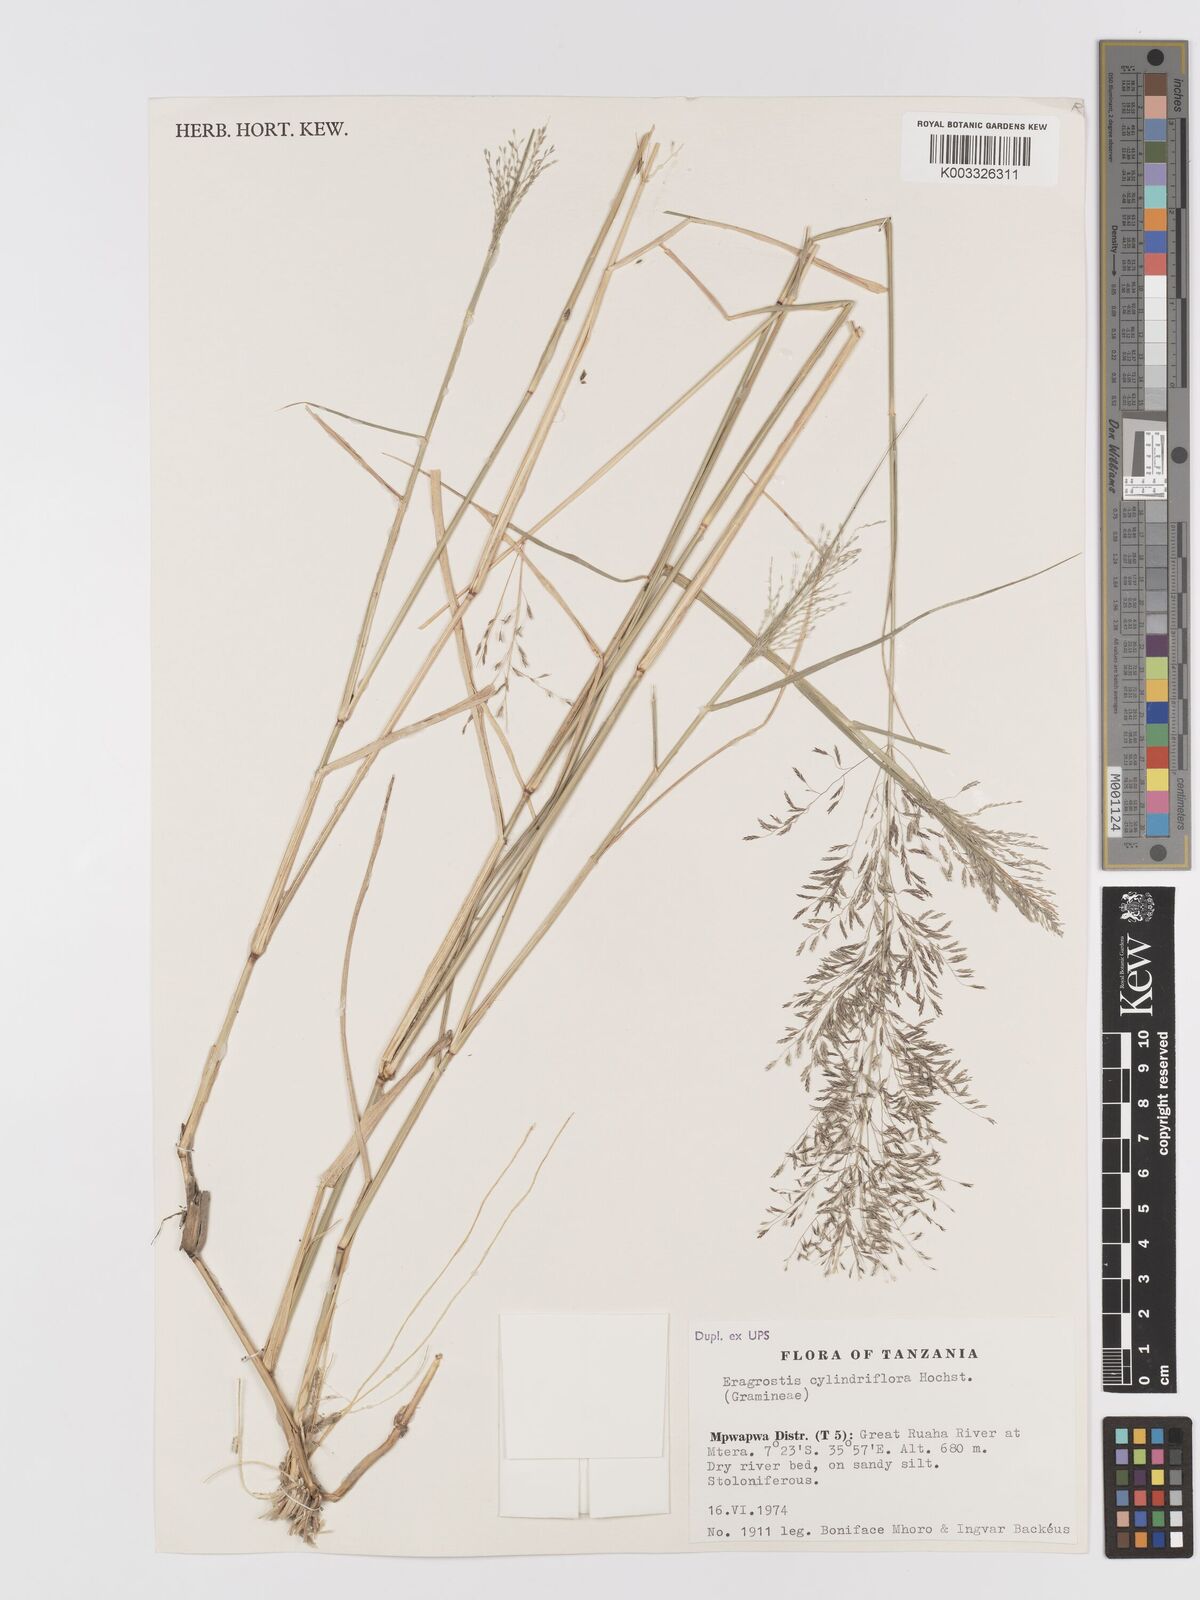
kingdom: Plantae
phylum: Tracheophyta
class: Liliopsida
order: Poales
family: Poaceae
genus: Eragrostis
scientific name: Eragrostis cylindriflora
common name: Cylinderflower lovegrass
